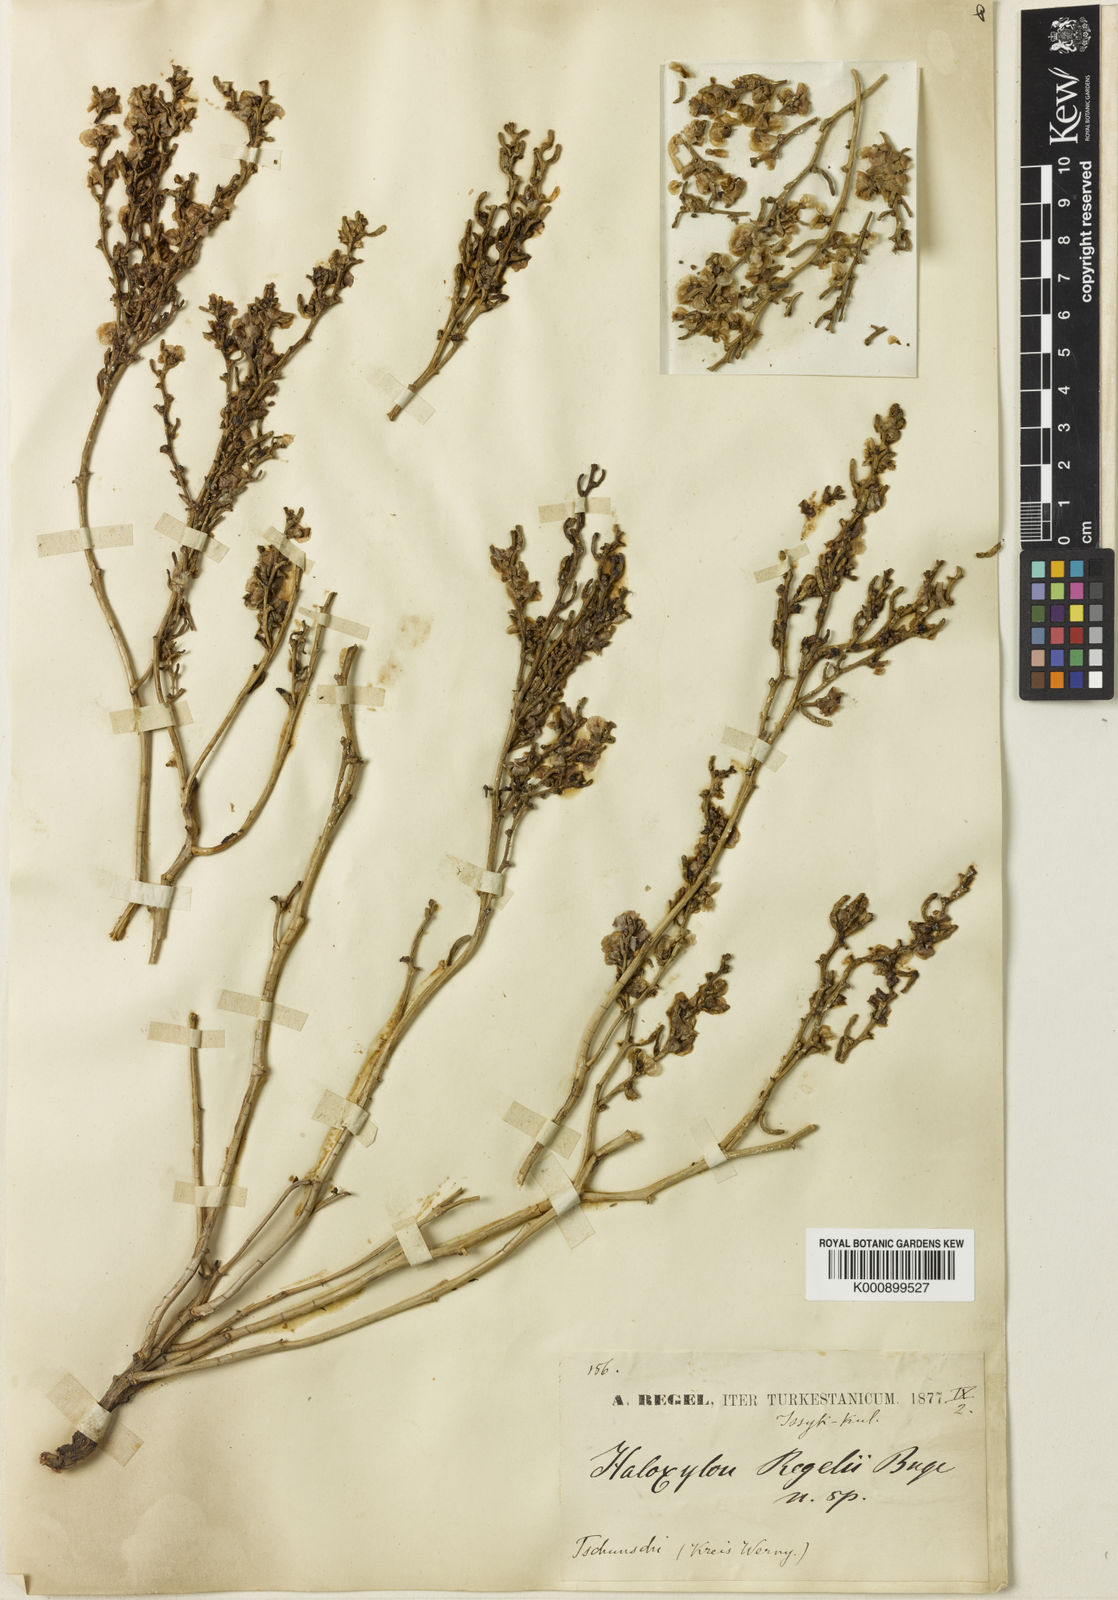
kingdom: Plantae
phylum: Tracheophyta
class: Magnoliopsida
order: Caryophyllales
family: Amaranthaceae
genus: Iljinia
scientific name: Iljinia
